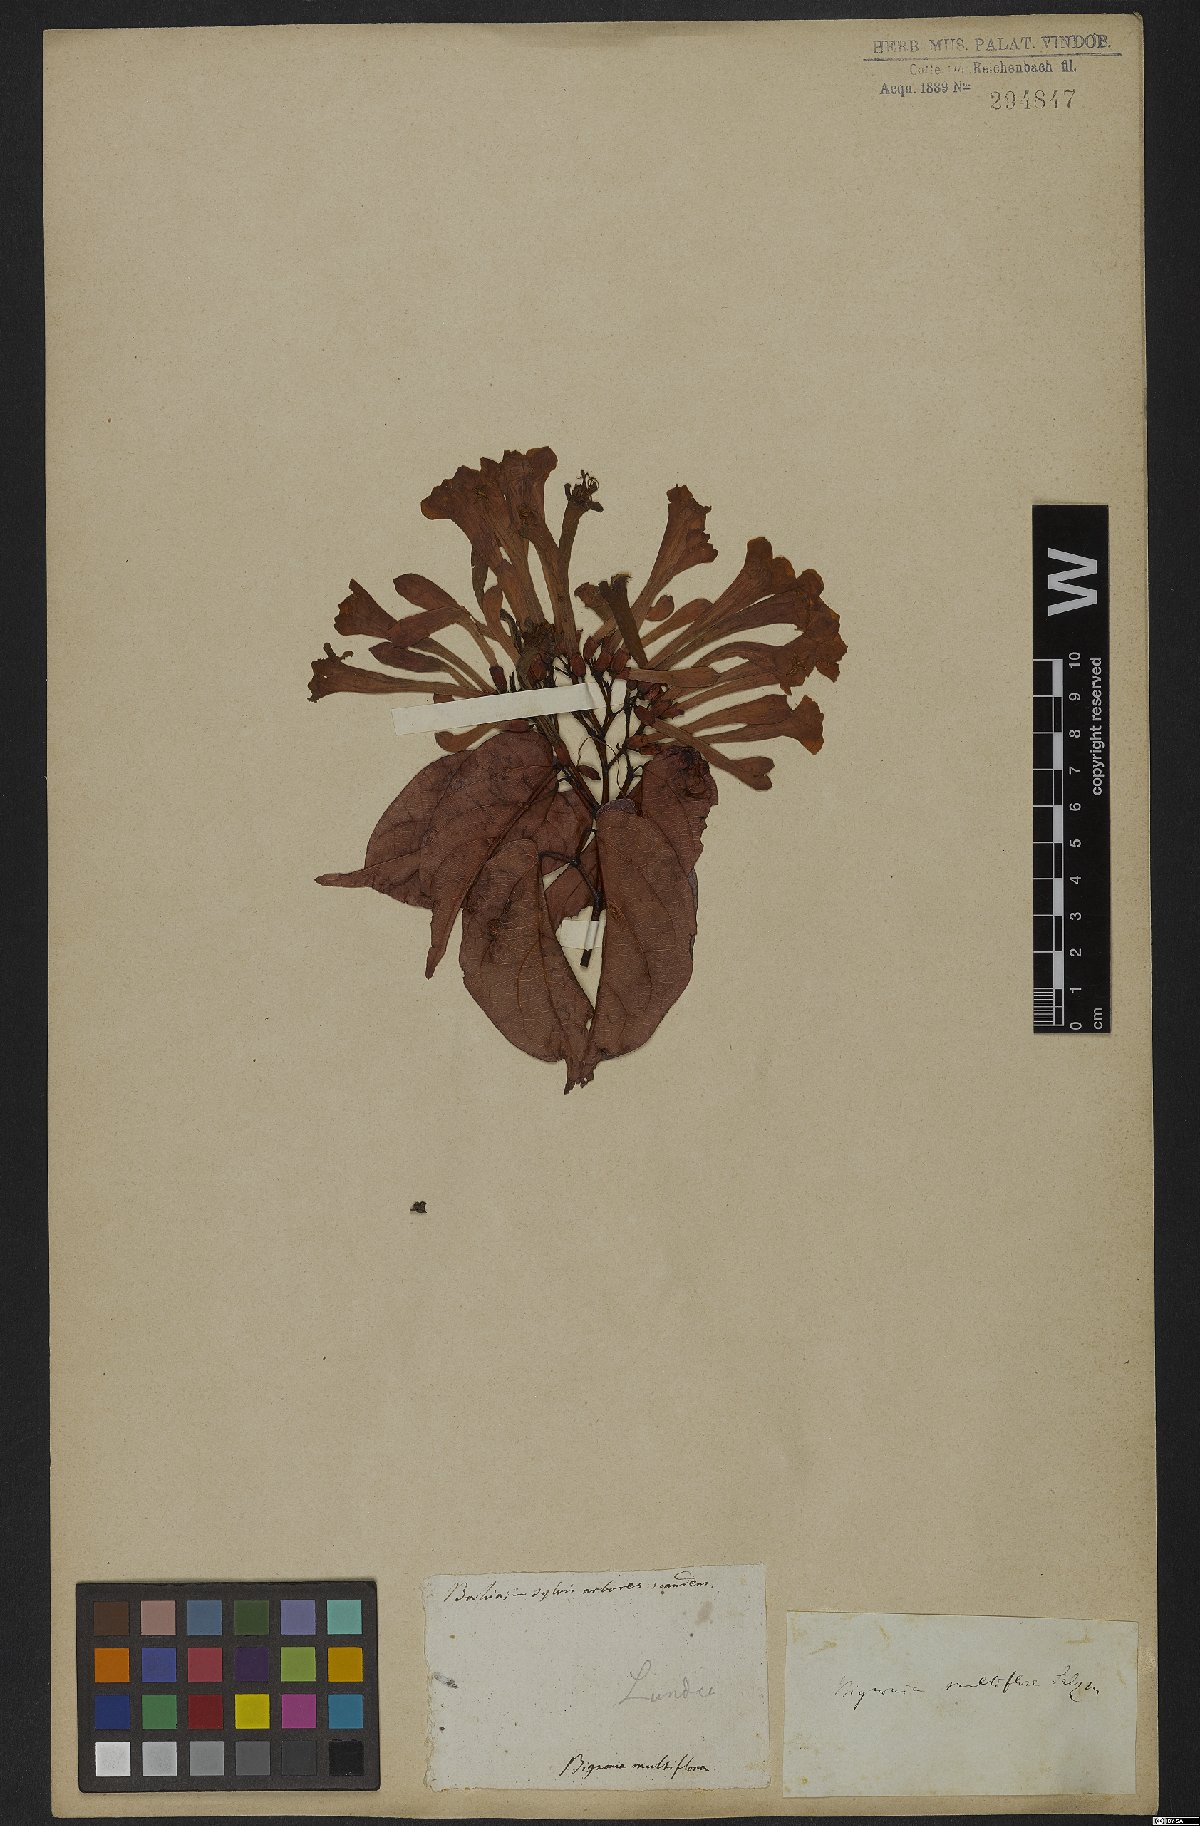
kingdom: Plantae
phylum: Tracheophyta
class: Magnoliopsida
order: Lamiales
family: Bignoniaceae
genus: Lundia
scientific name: Lundia corymbifera
